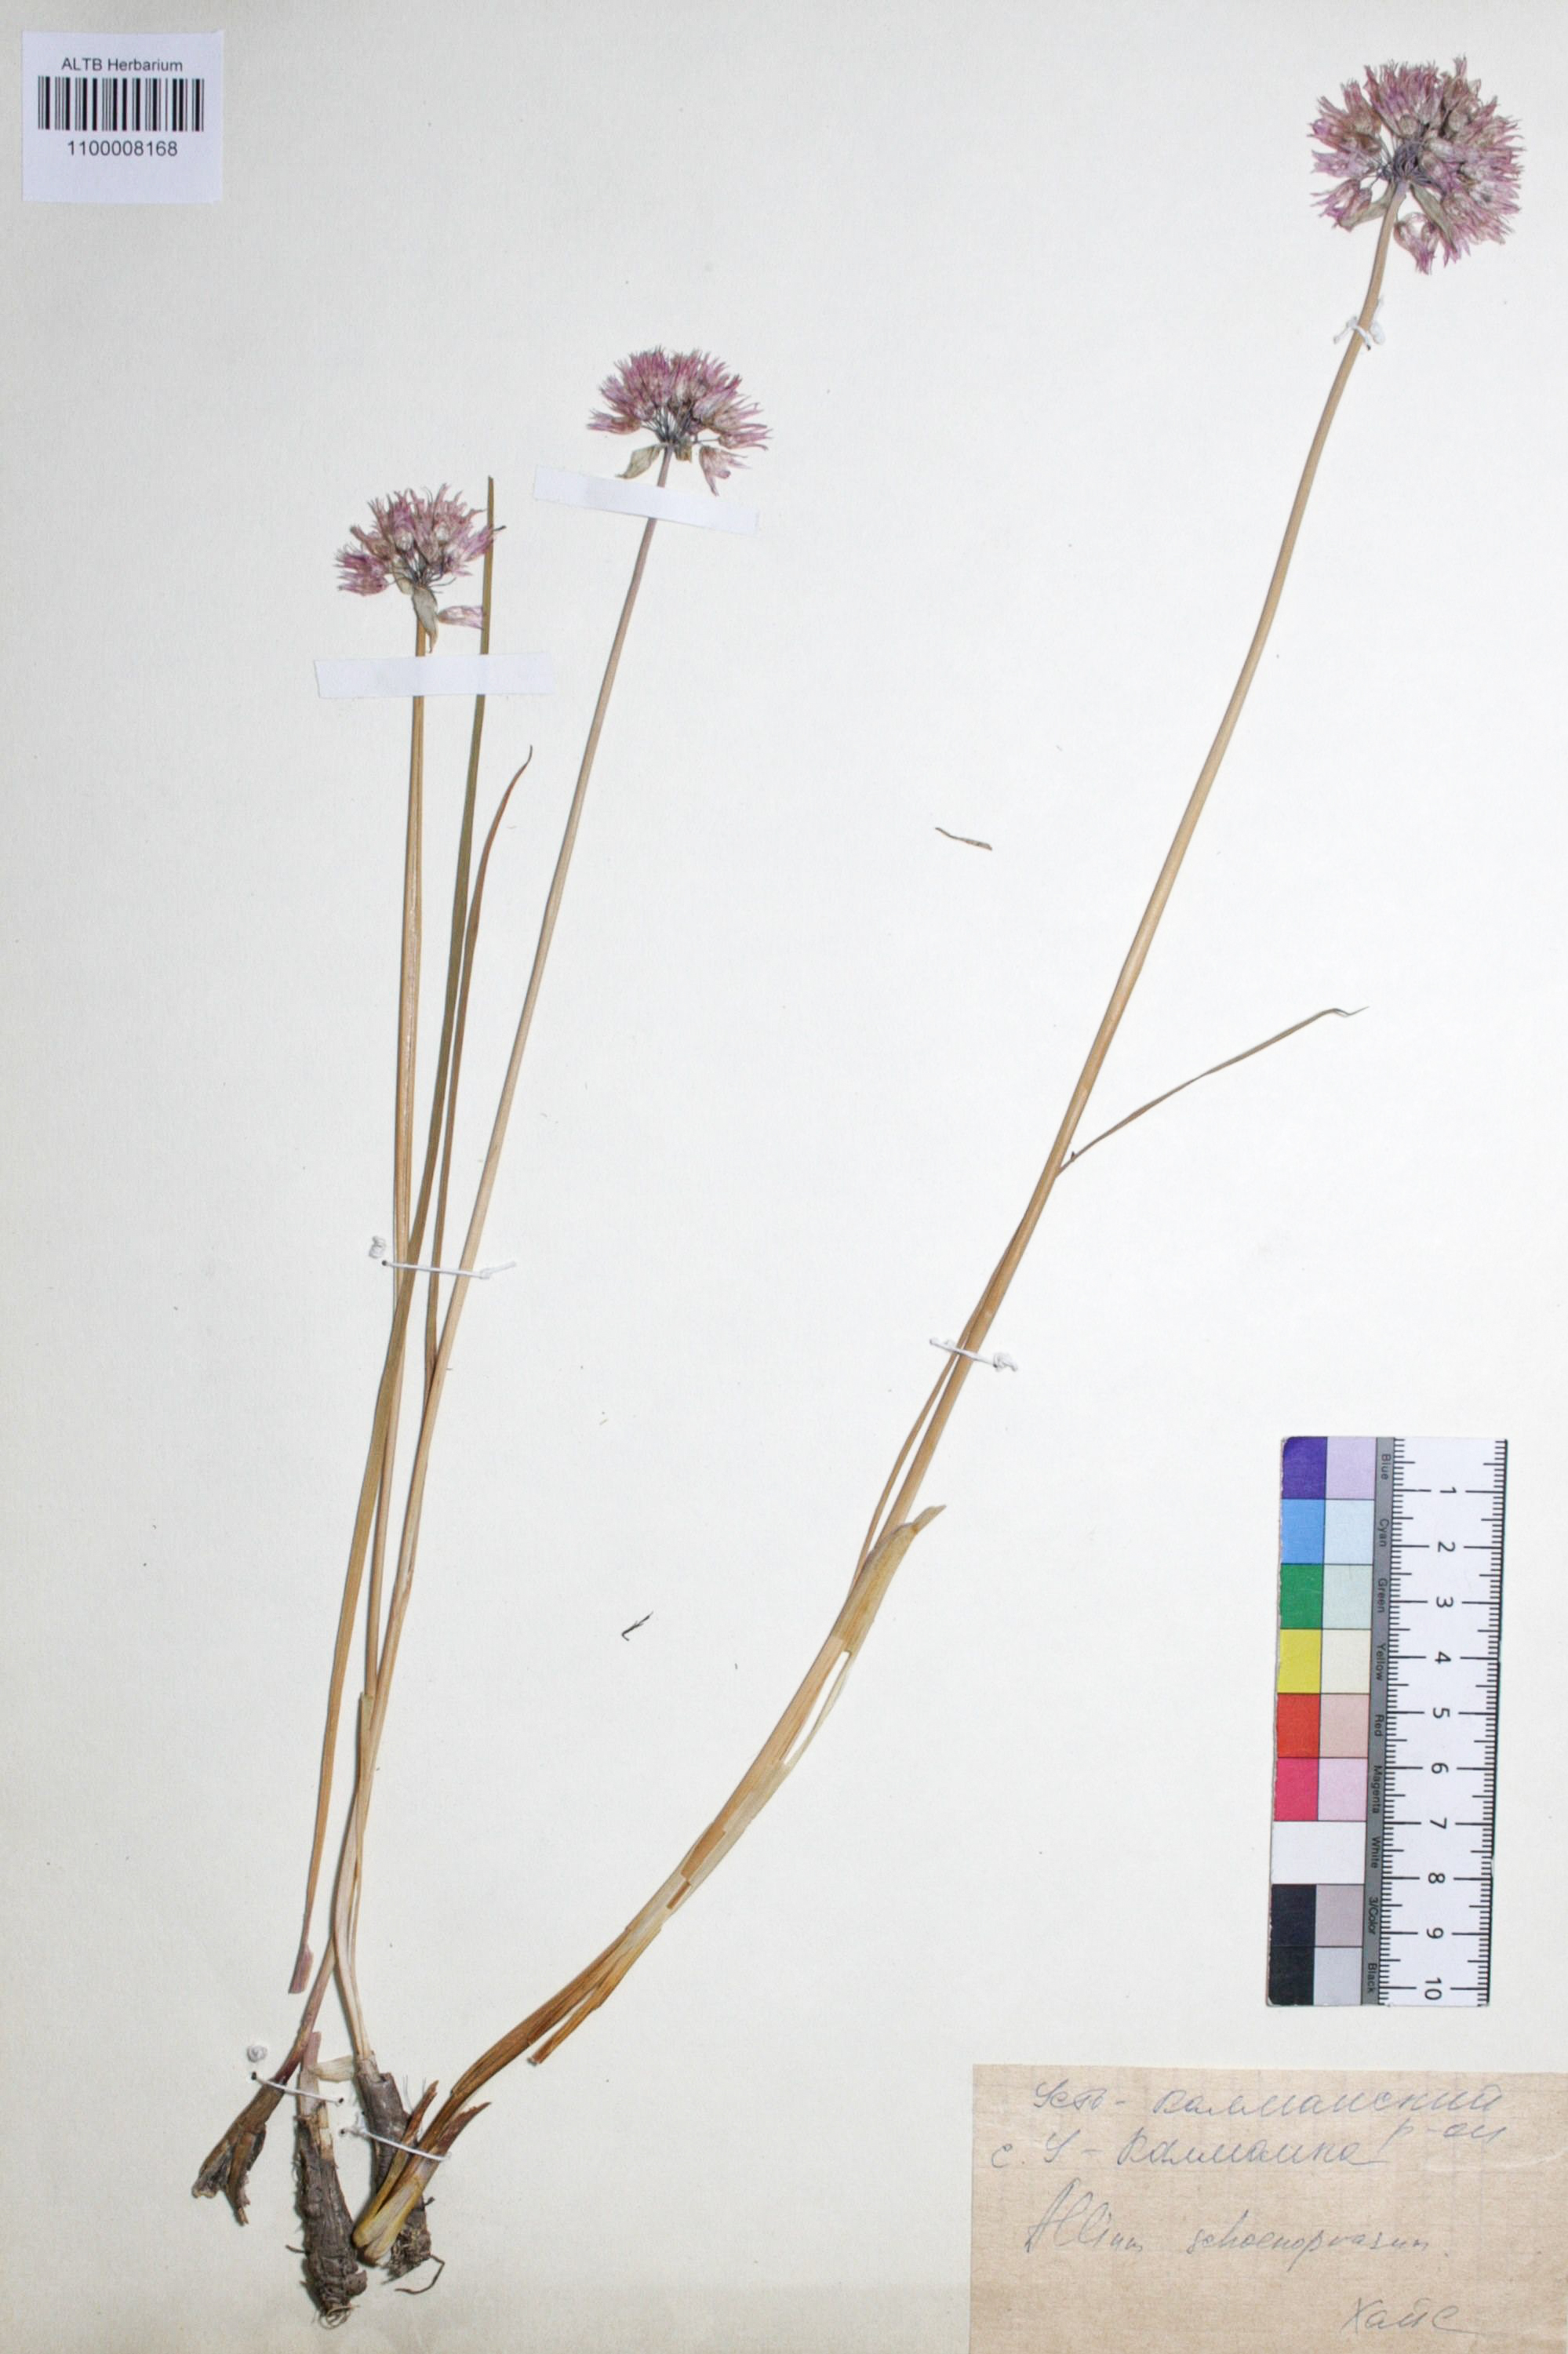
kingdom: Plantae
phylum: Tracheophyta
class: Liliopsida
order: Asparagales
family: Amaryllidaceae
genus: Allium
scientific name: Allium schoenoprasum
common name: Chives
